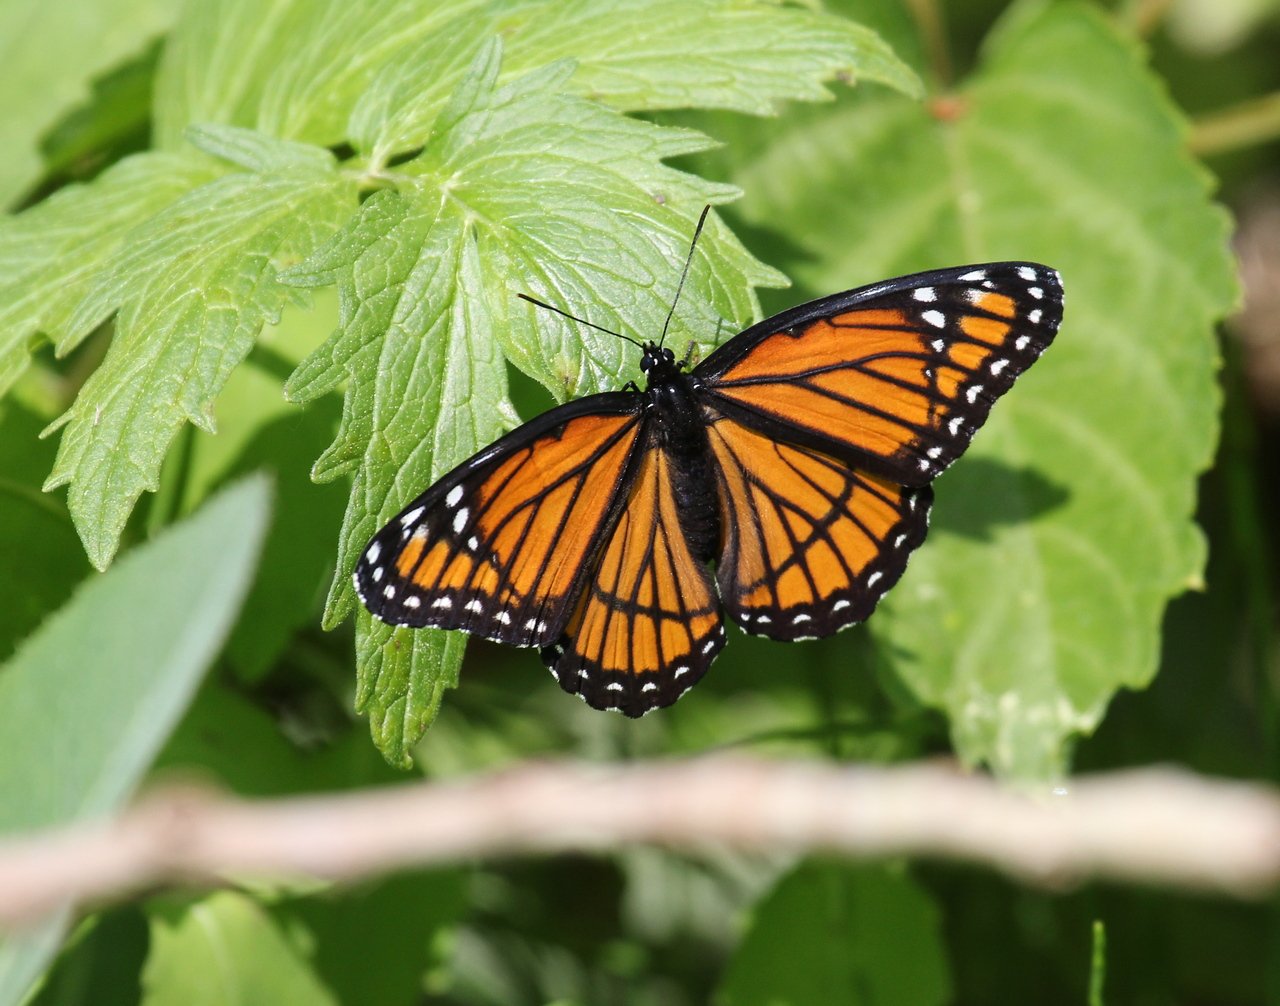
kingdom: Animalia
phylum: Arthropoda
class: Insecta
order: Lepidoptera
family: Nymphalidae
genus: Limenitis
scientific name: Limenitis archippus
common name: Viceroy
